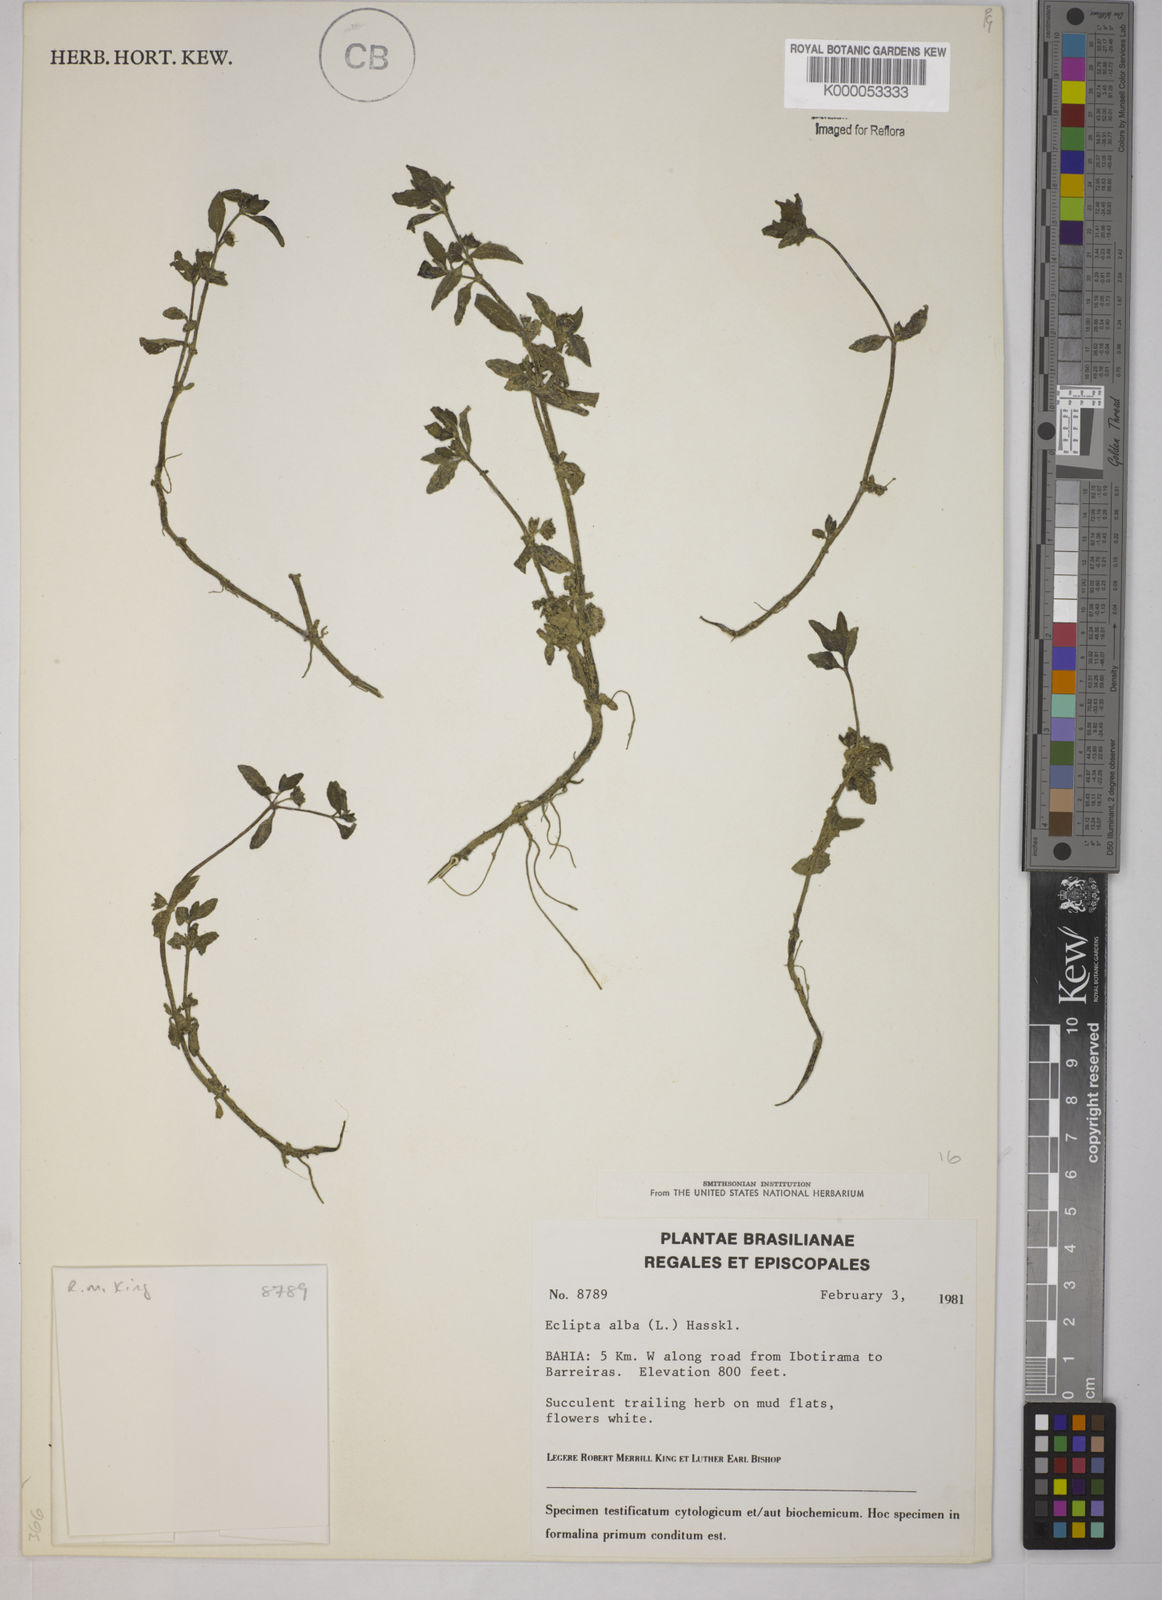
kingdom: Plantae
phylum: Tracheophyta
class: Magnoliopsida
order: Asterales
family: Asteraceae
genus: Eclipta
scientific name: Eclipta prostrata
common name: False daisy
